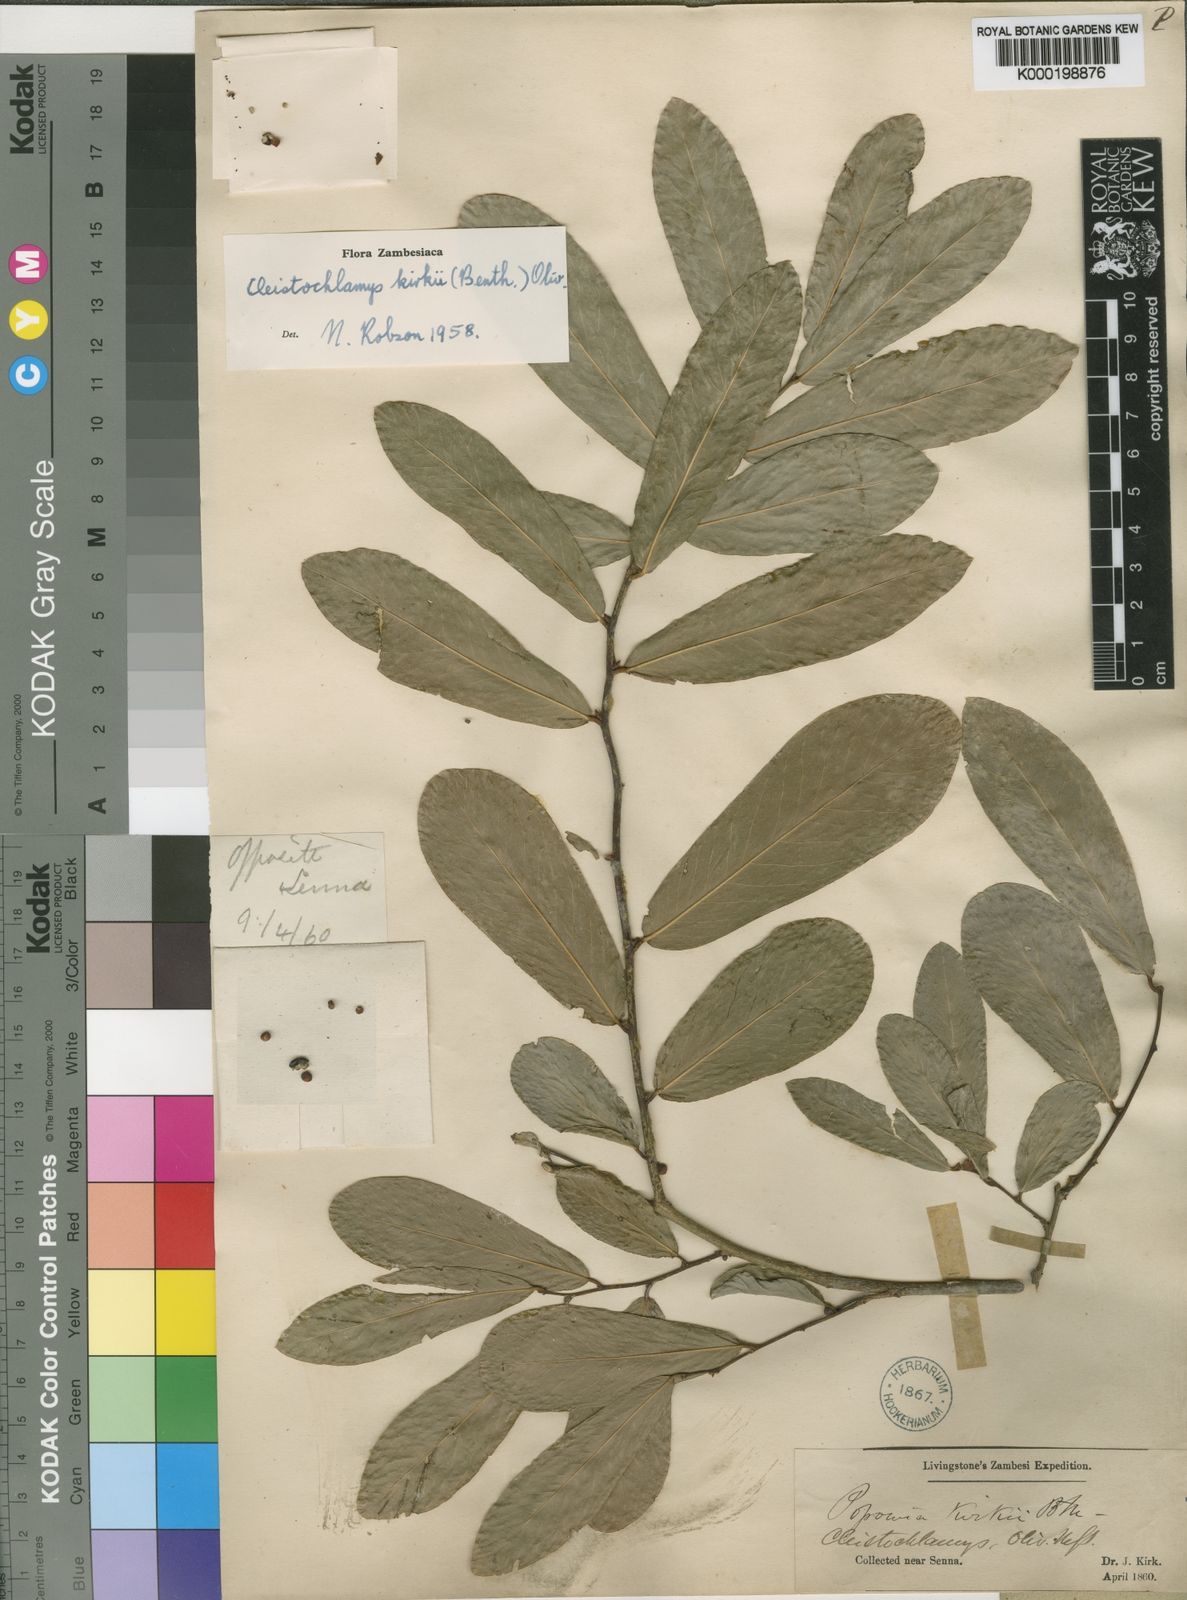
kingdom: Plantae
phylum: Tracheophyta
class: Magnoliopsida
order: Magnoliales
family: Annonaceae
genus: Cleistochlamys
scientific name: Cleistochlamys kirkii
